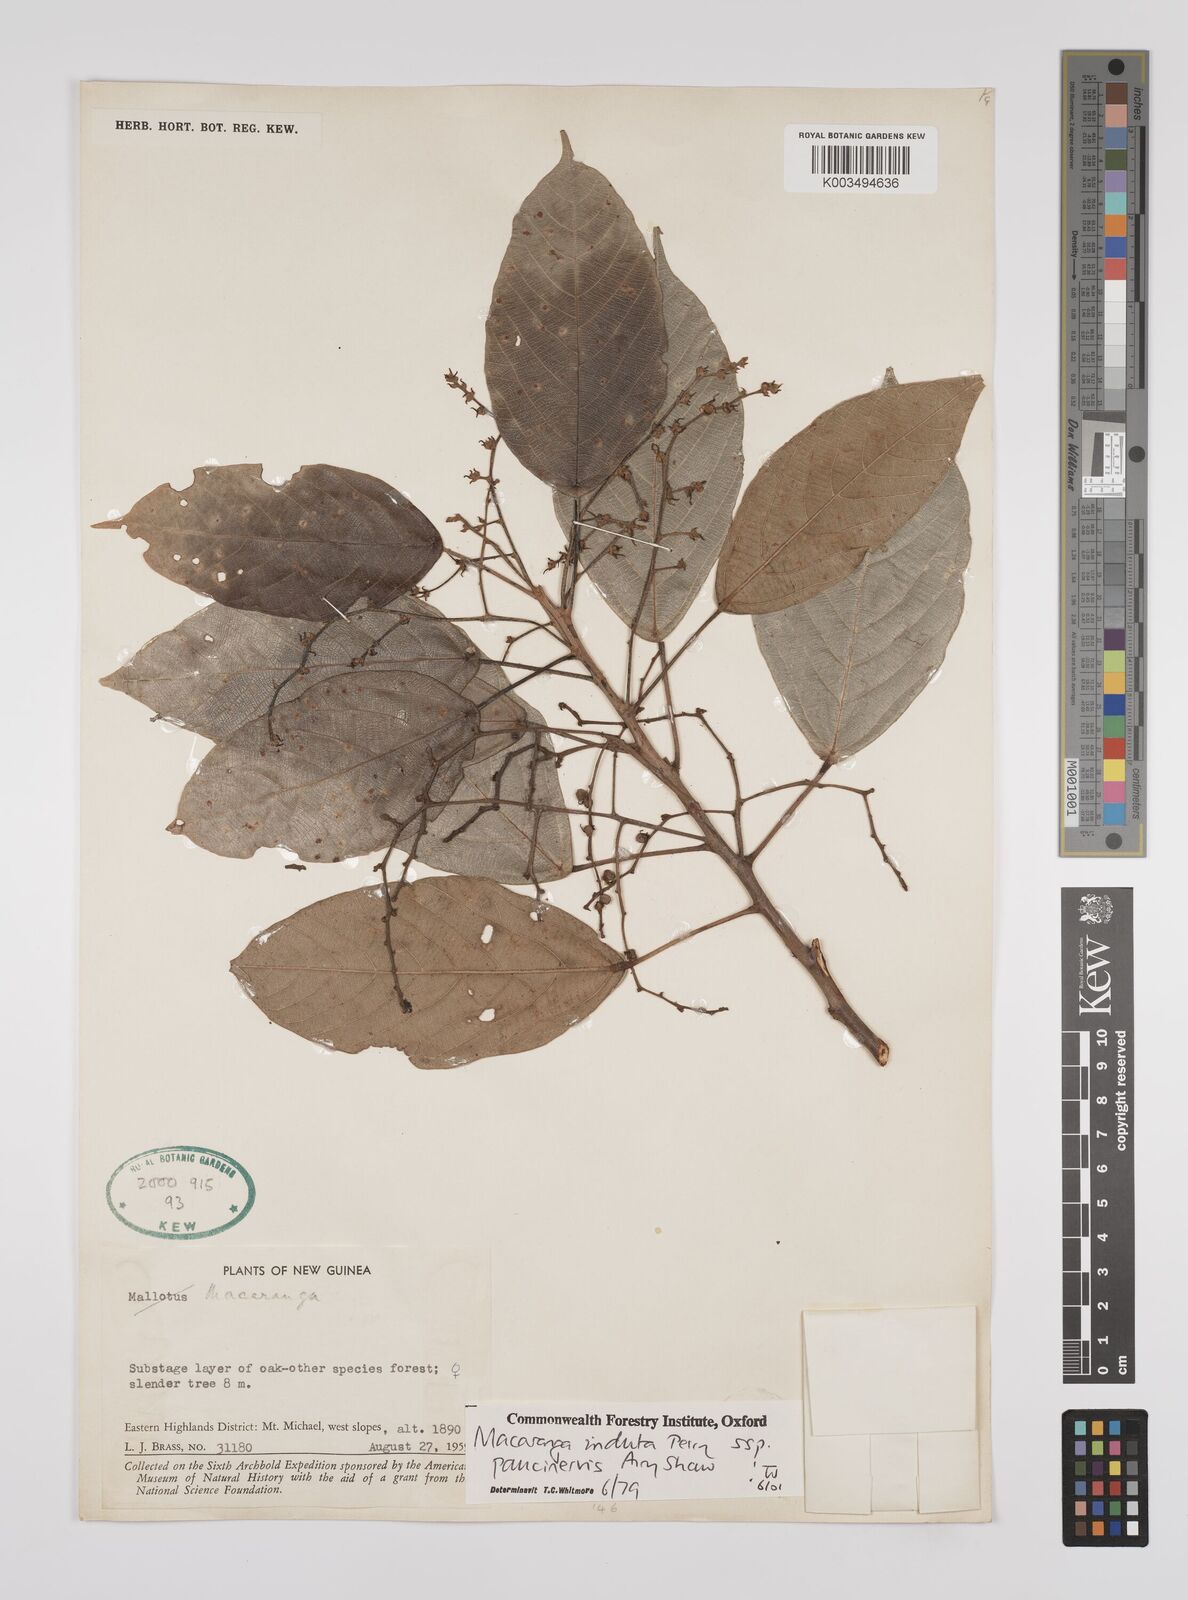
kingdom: Plantae
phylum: Tracheophyta
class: Magnoliopsida
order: Malpighiales
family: Euphorbiaceae
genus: Macaranga
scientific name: Macaranga induta
